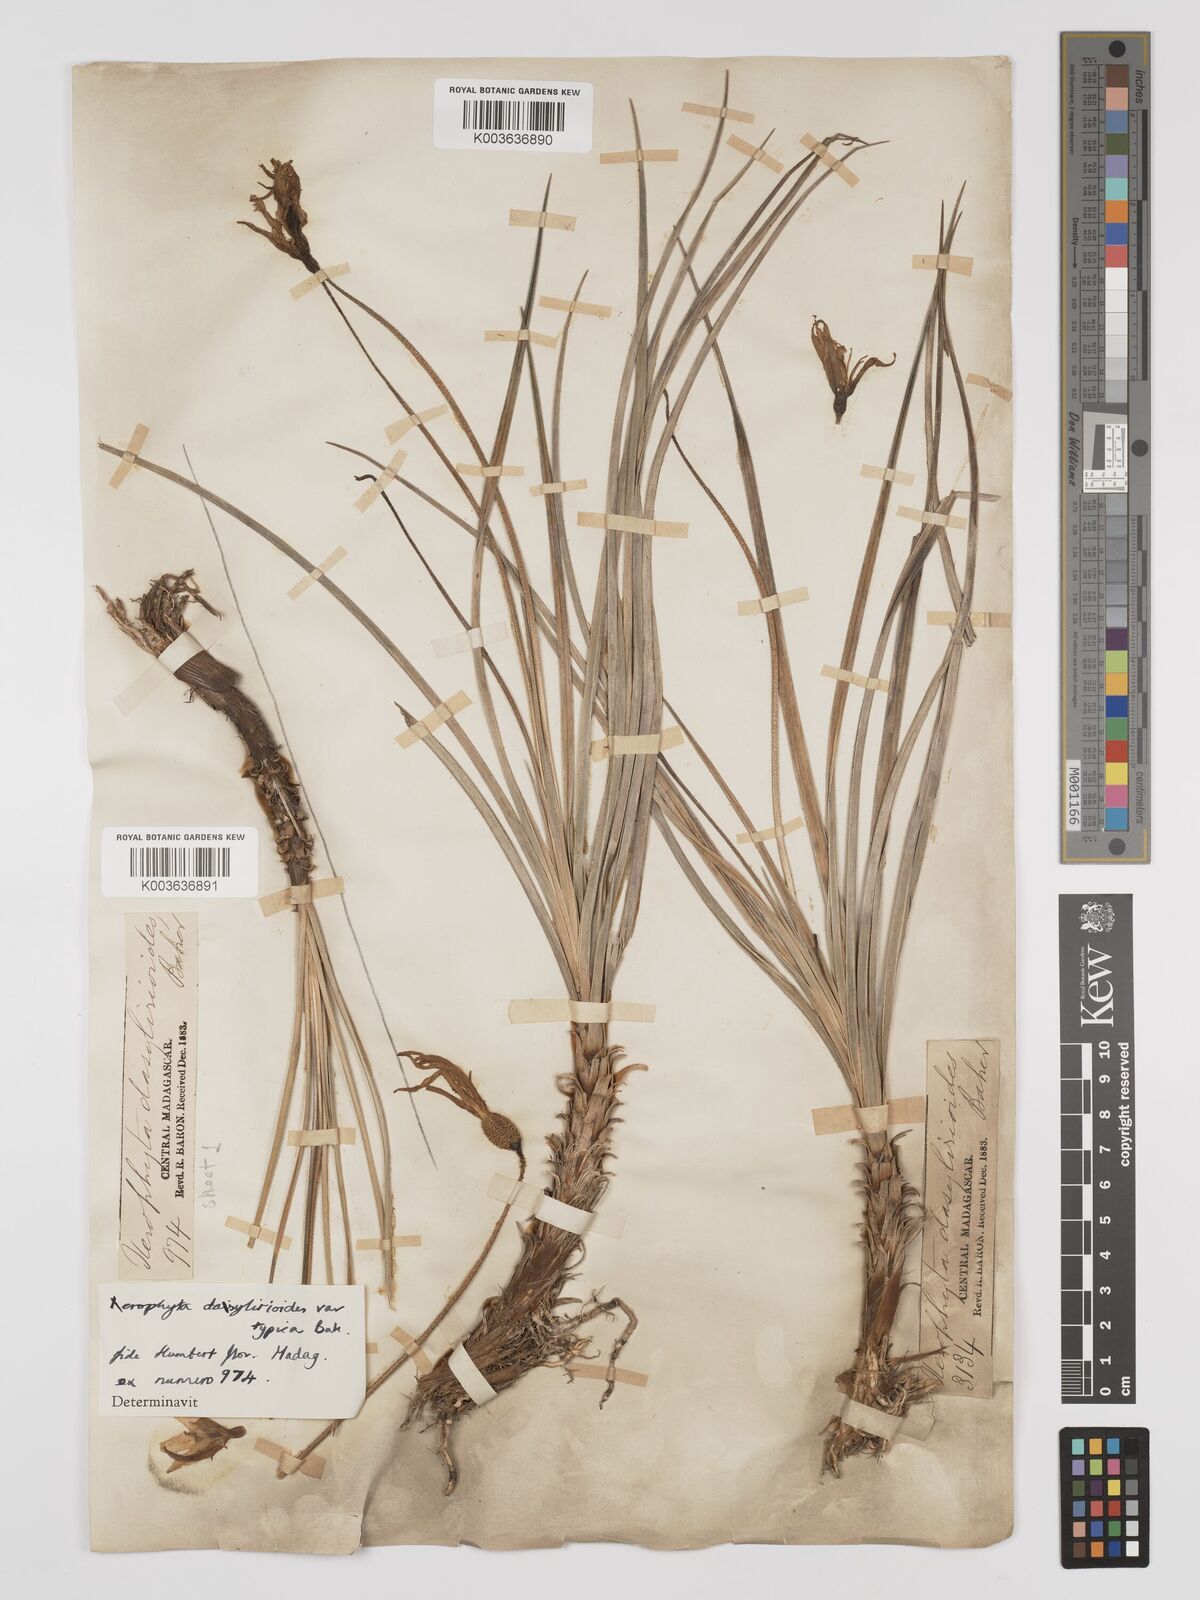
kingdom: Plantae
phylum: Tracheophyta
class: Liliopsida
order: Pandanales
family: Velloziaceae
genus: Xerophyta
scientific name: Xerophyta dasylirioides
